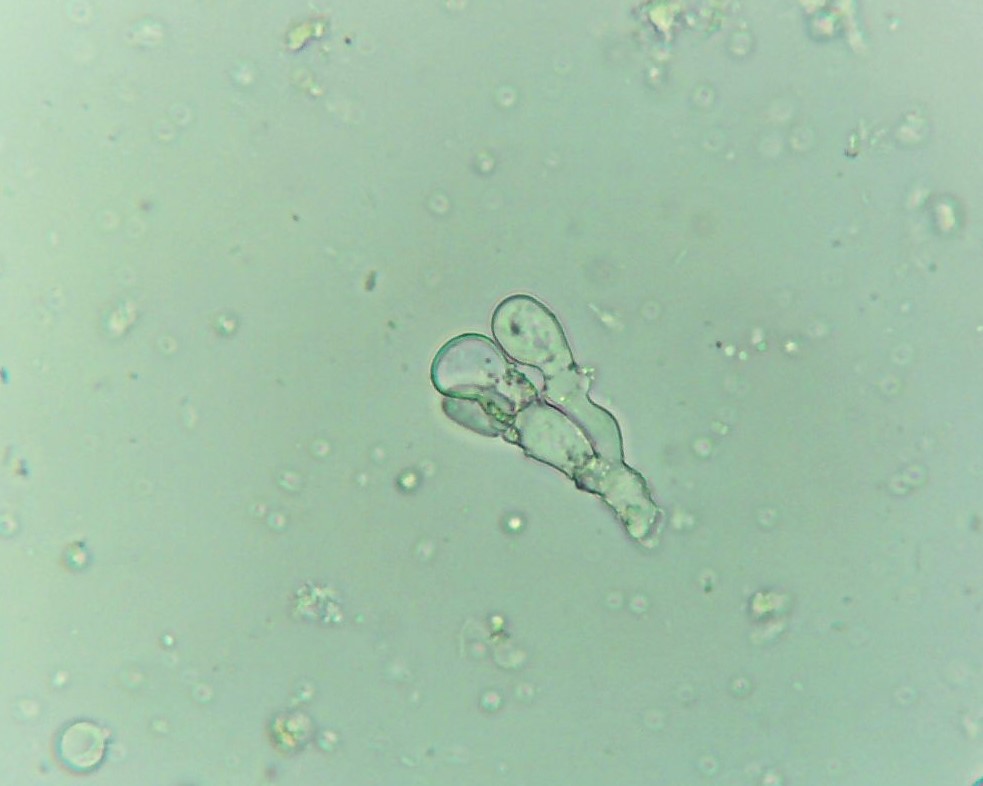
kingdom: Fungi
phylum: Basidiomycota
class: Agaricomycetes
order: Polyporales
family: Meruliaceae
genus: Bulbillomyces
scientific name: Bulbillomyces farinosus
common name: æg-kalkskind
